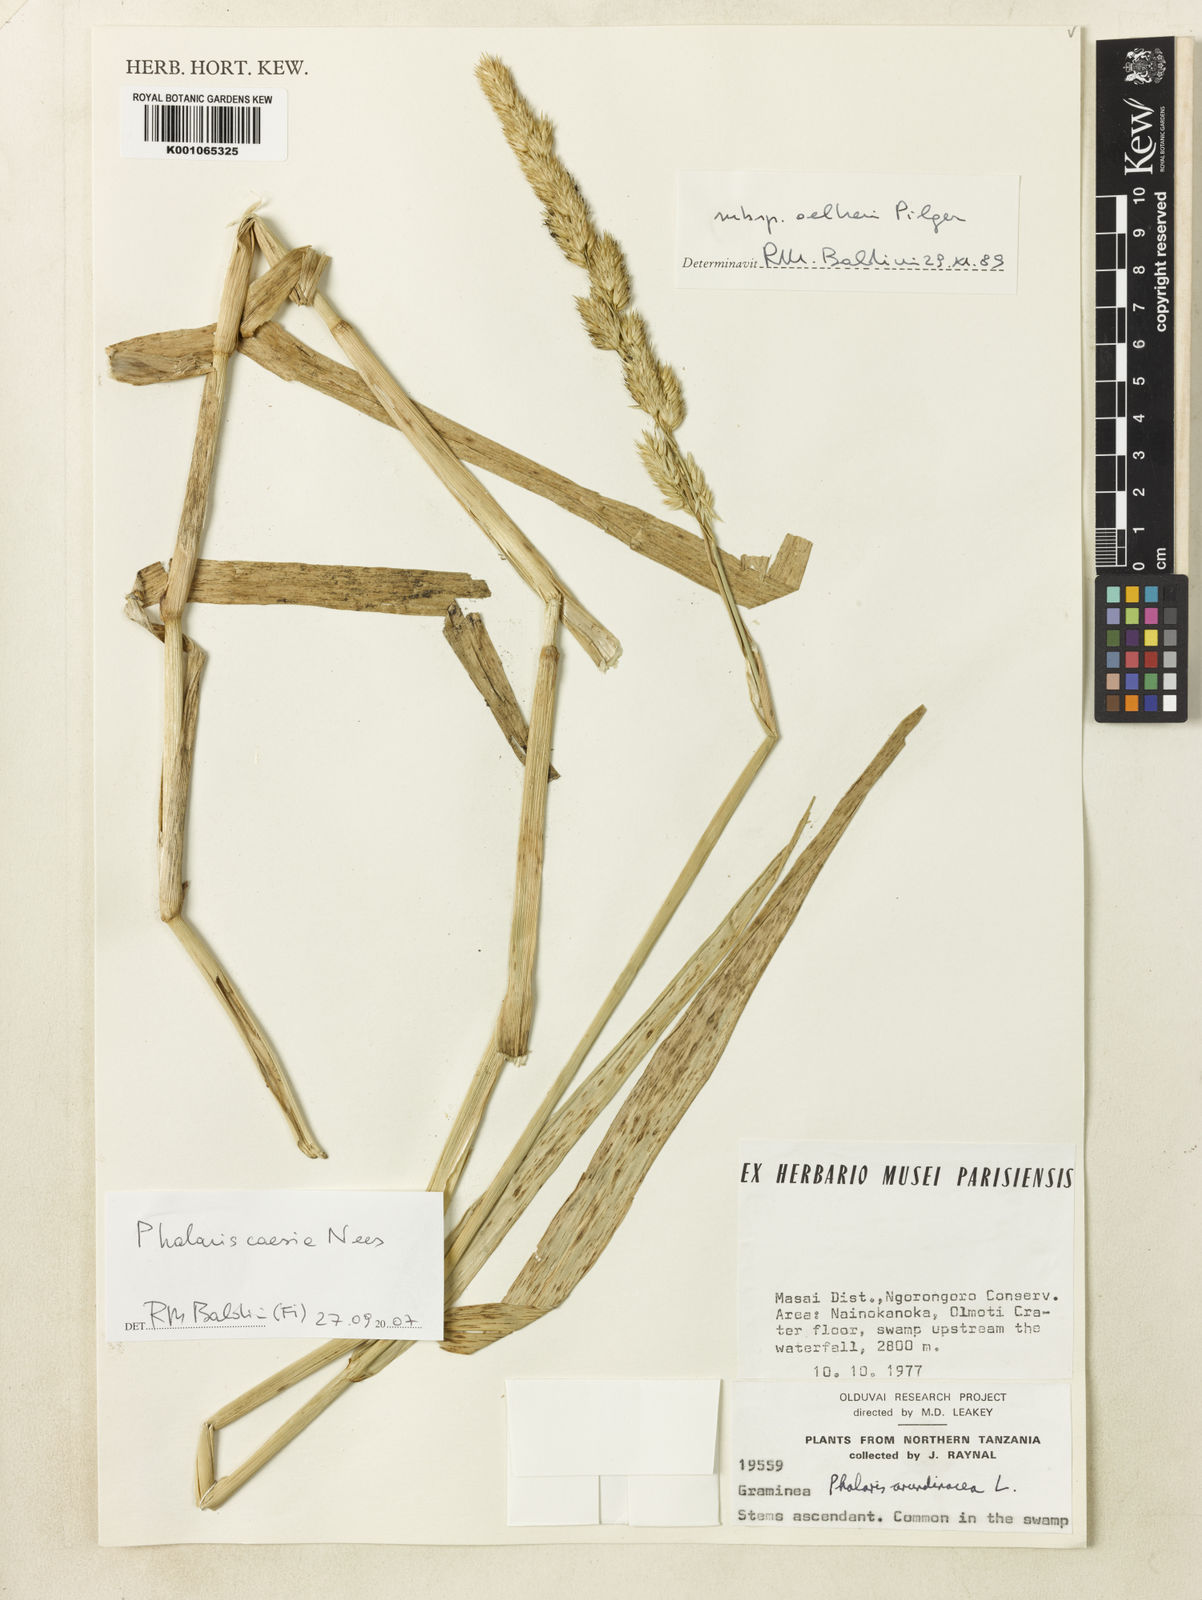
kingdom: Plantae
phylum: Tracheophyta
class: Liliopsida
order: Poales
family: Poaceae
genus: Phalaris
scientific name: Phalaris arundinacea
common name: Reed canary-grass
